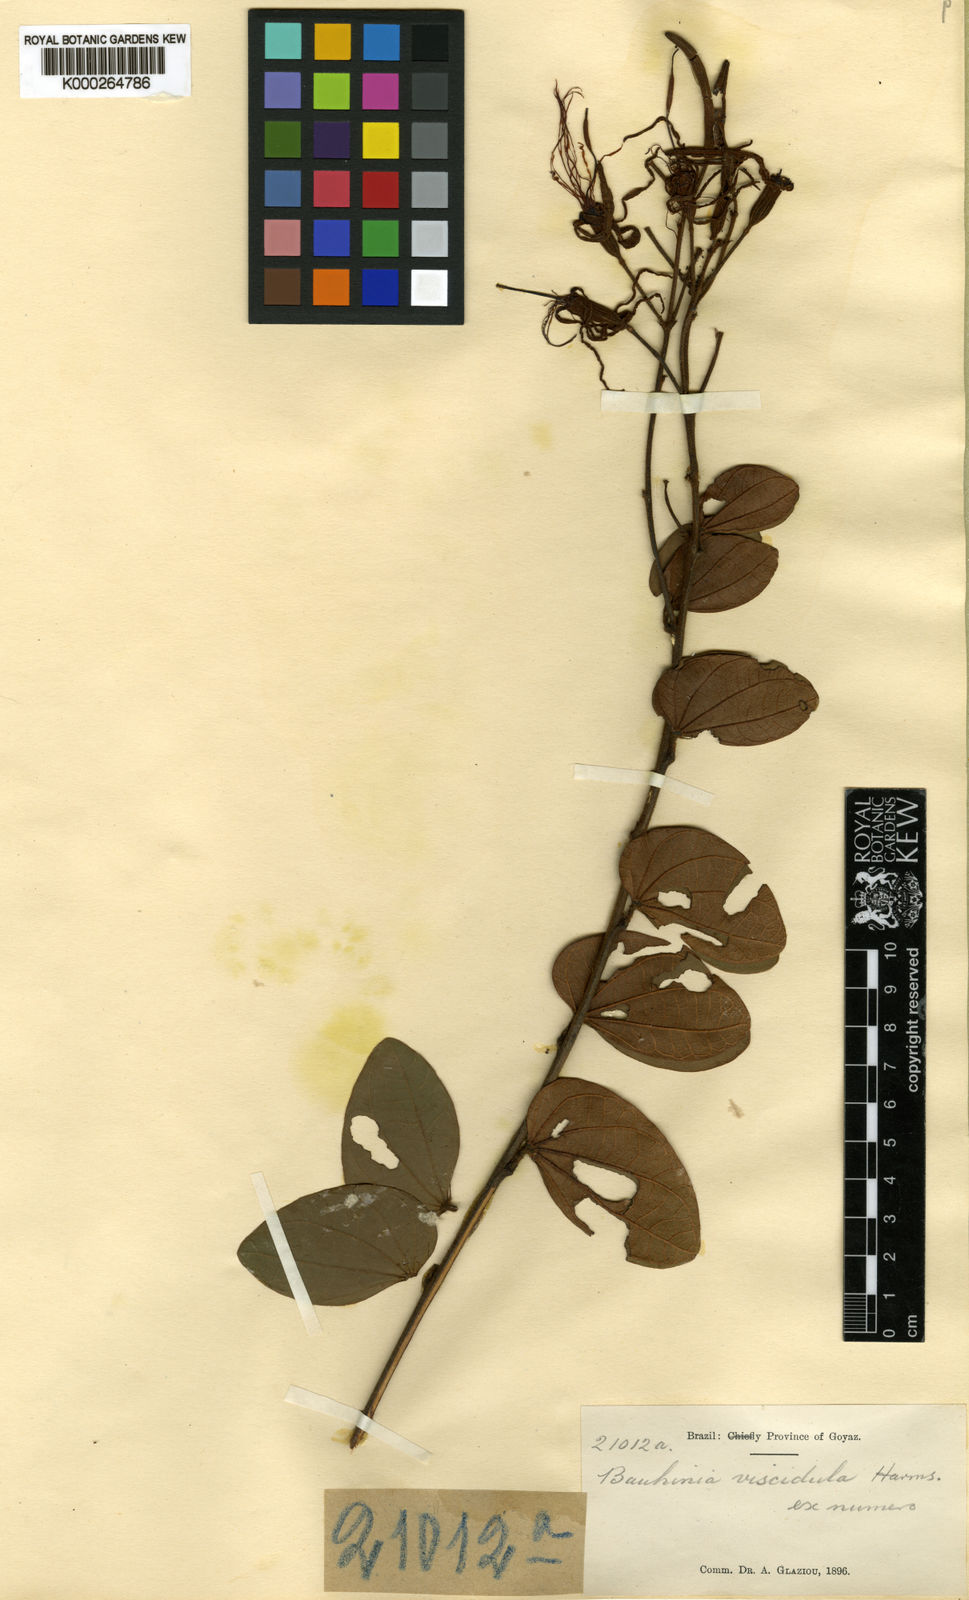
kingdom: Plantae
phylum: Tracheophyta
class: Magnoliopsida
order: Fabales
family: Fabaceae
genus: Bauhinia
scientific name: Bauhinia dumosa
